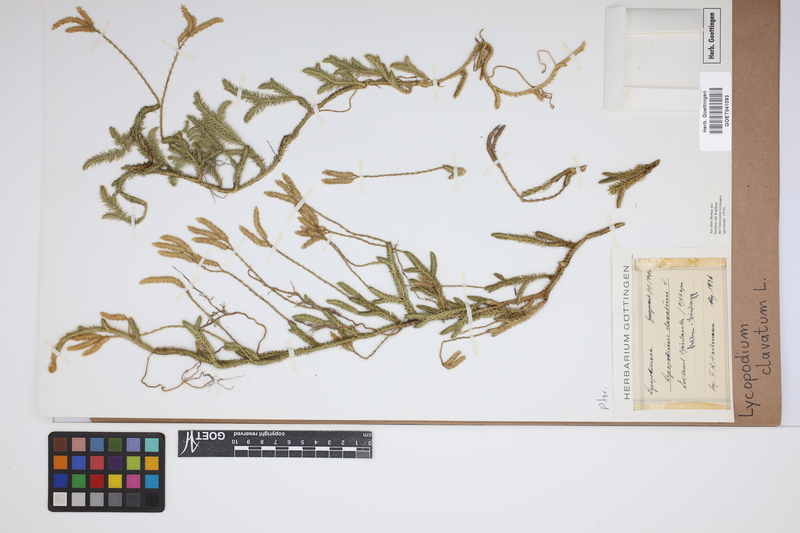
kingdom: Plantae
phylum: Tracheophyta
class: Lycopodiopsida
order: Lycopodiales
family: Lycopodiaceae
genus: Lycopodium
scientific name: Lycopodium clavatum
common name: Stag's-horn clubmoss
